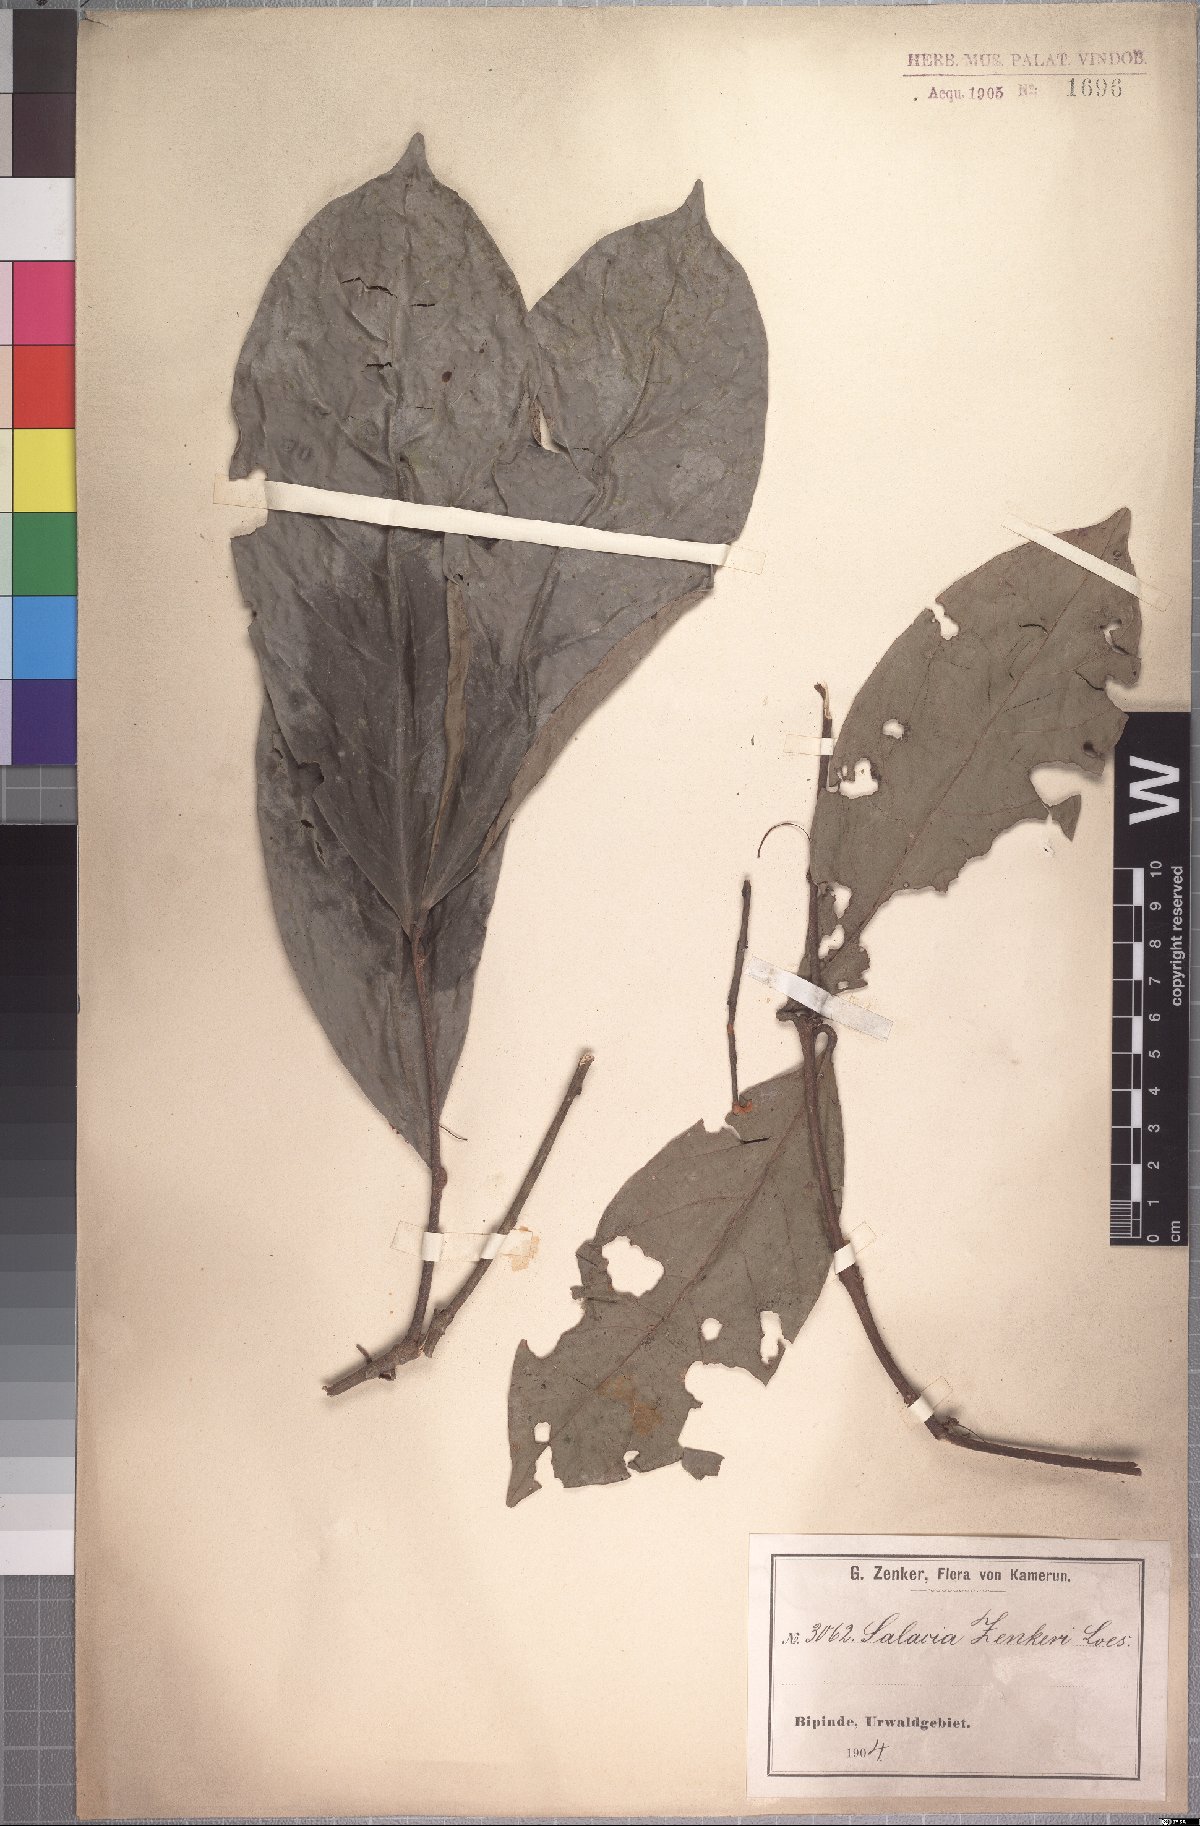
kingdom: Plantae
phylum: Tracheophyta
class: Magnoliopsida
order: Celastrales
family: Celastraceae
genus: Salacia
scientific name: Salacia zenkeri
